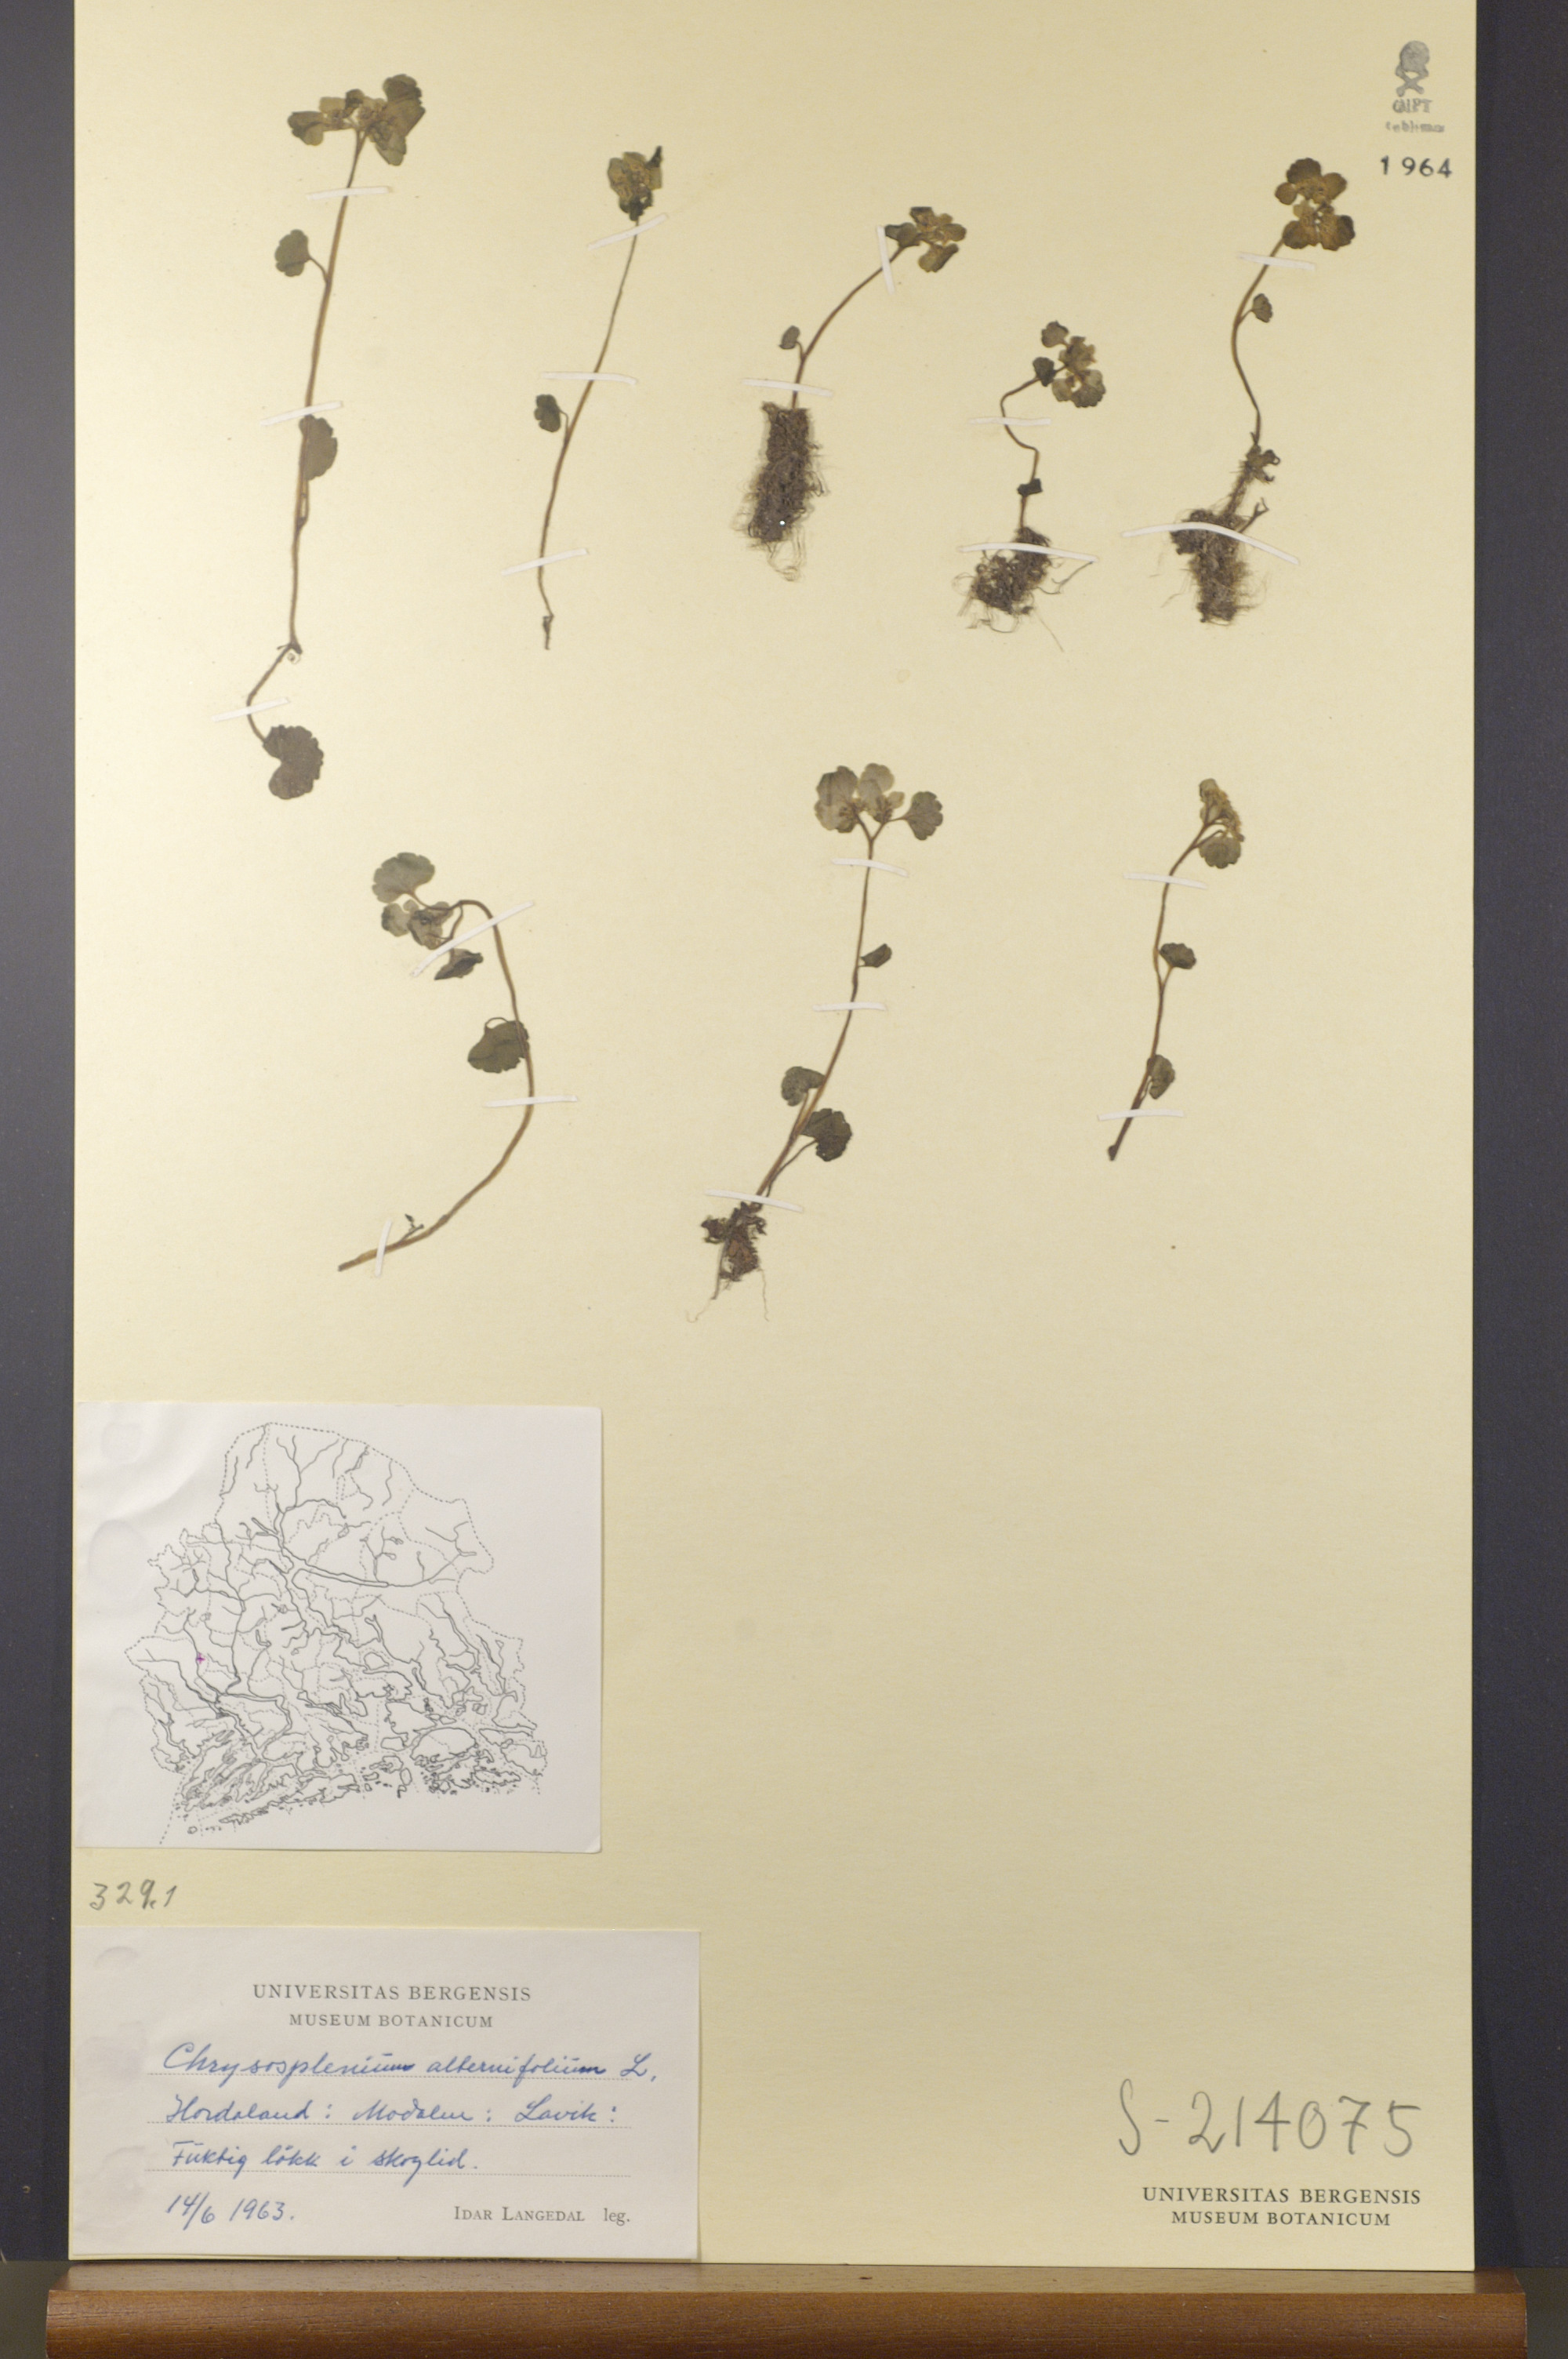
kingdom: Plantae
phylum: Tracheophyta
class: Magnoliopsida
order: Saxifragales
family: Saxifragaceae
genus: Chrysosplenium
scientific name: Chrysosplenium alternifolium
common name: Alternate-leaved golden-saxifrage
